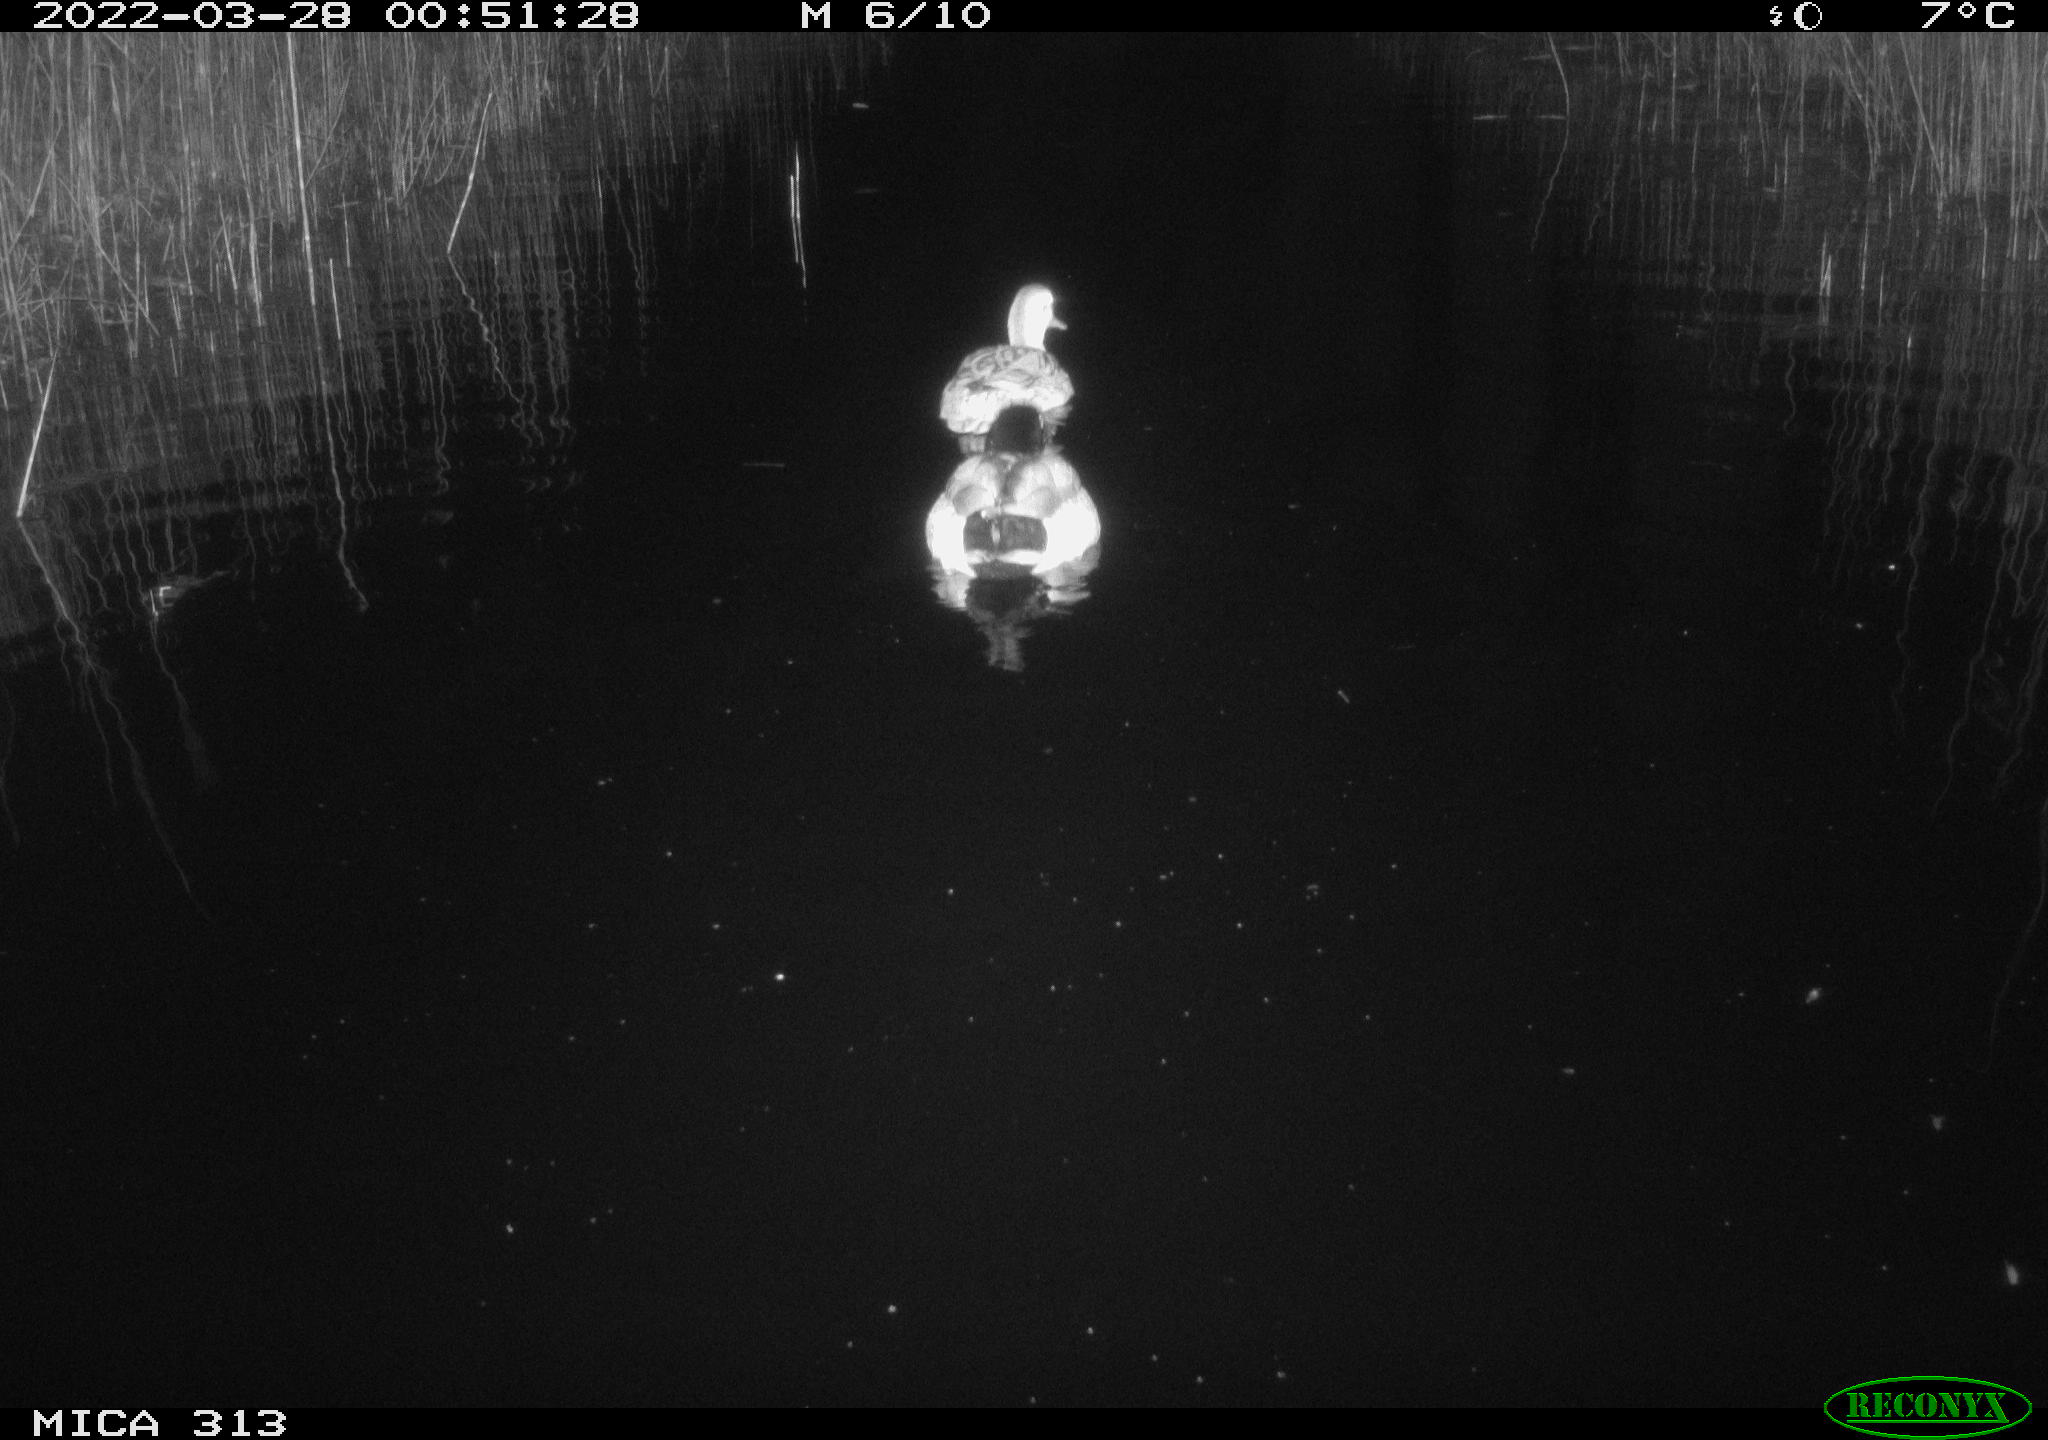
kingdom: Animalia
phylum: Chordata
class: Aves
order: Anseriformes
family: Anatidae
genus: Anas
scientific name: Anas platyrhynchos
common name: Mallard
